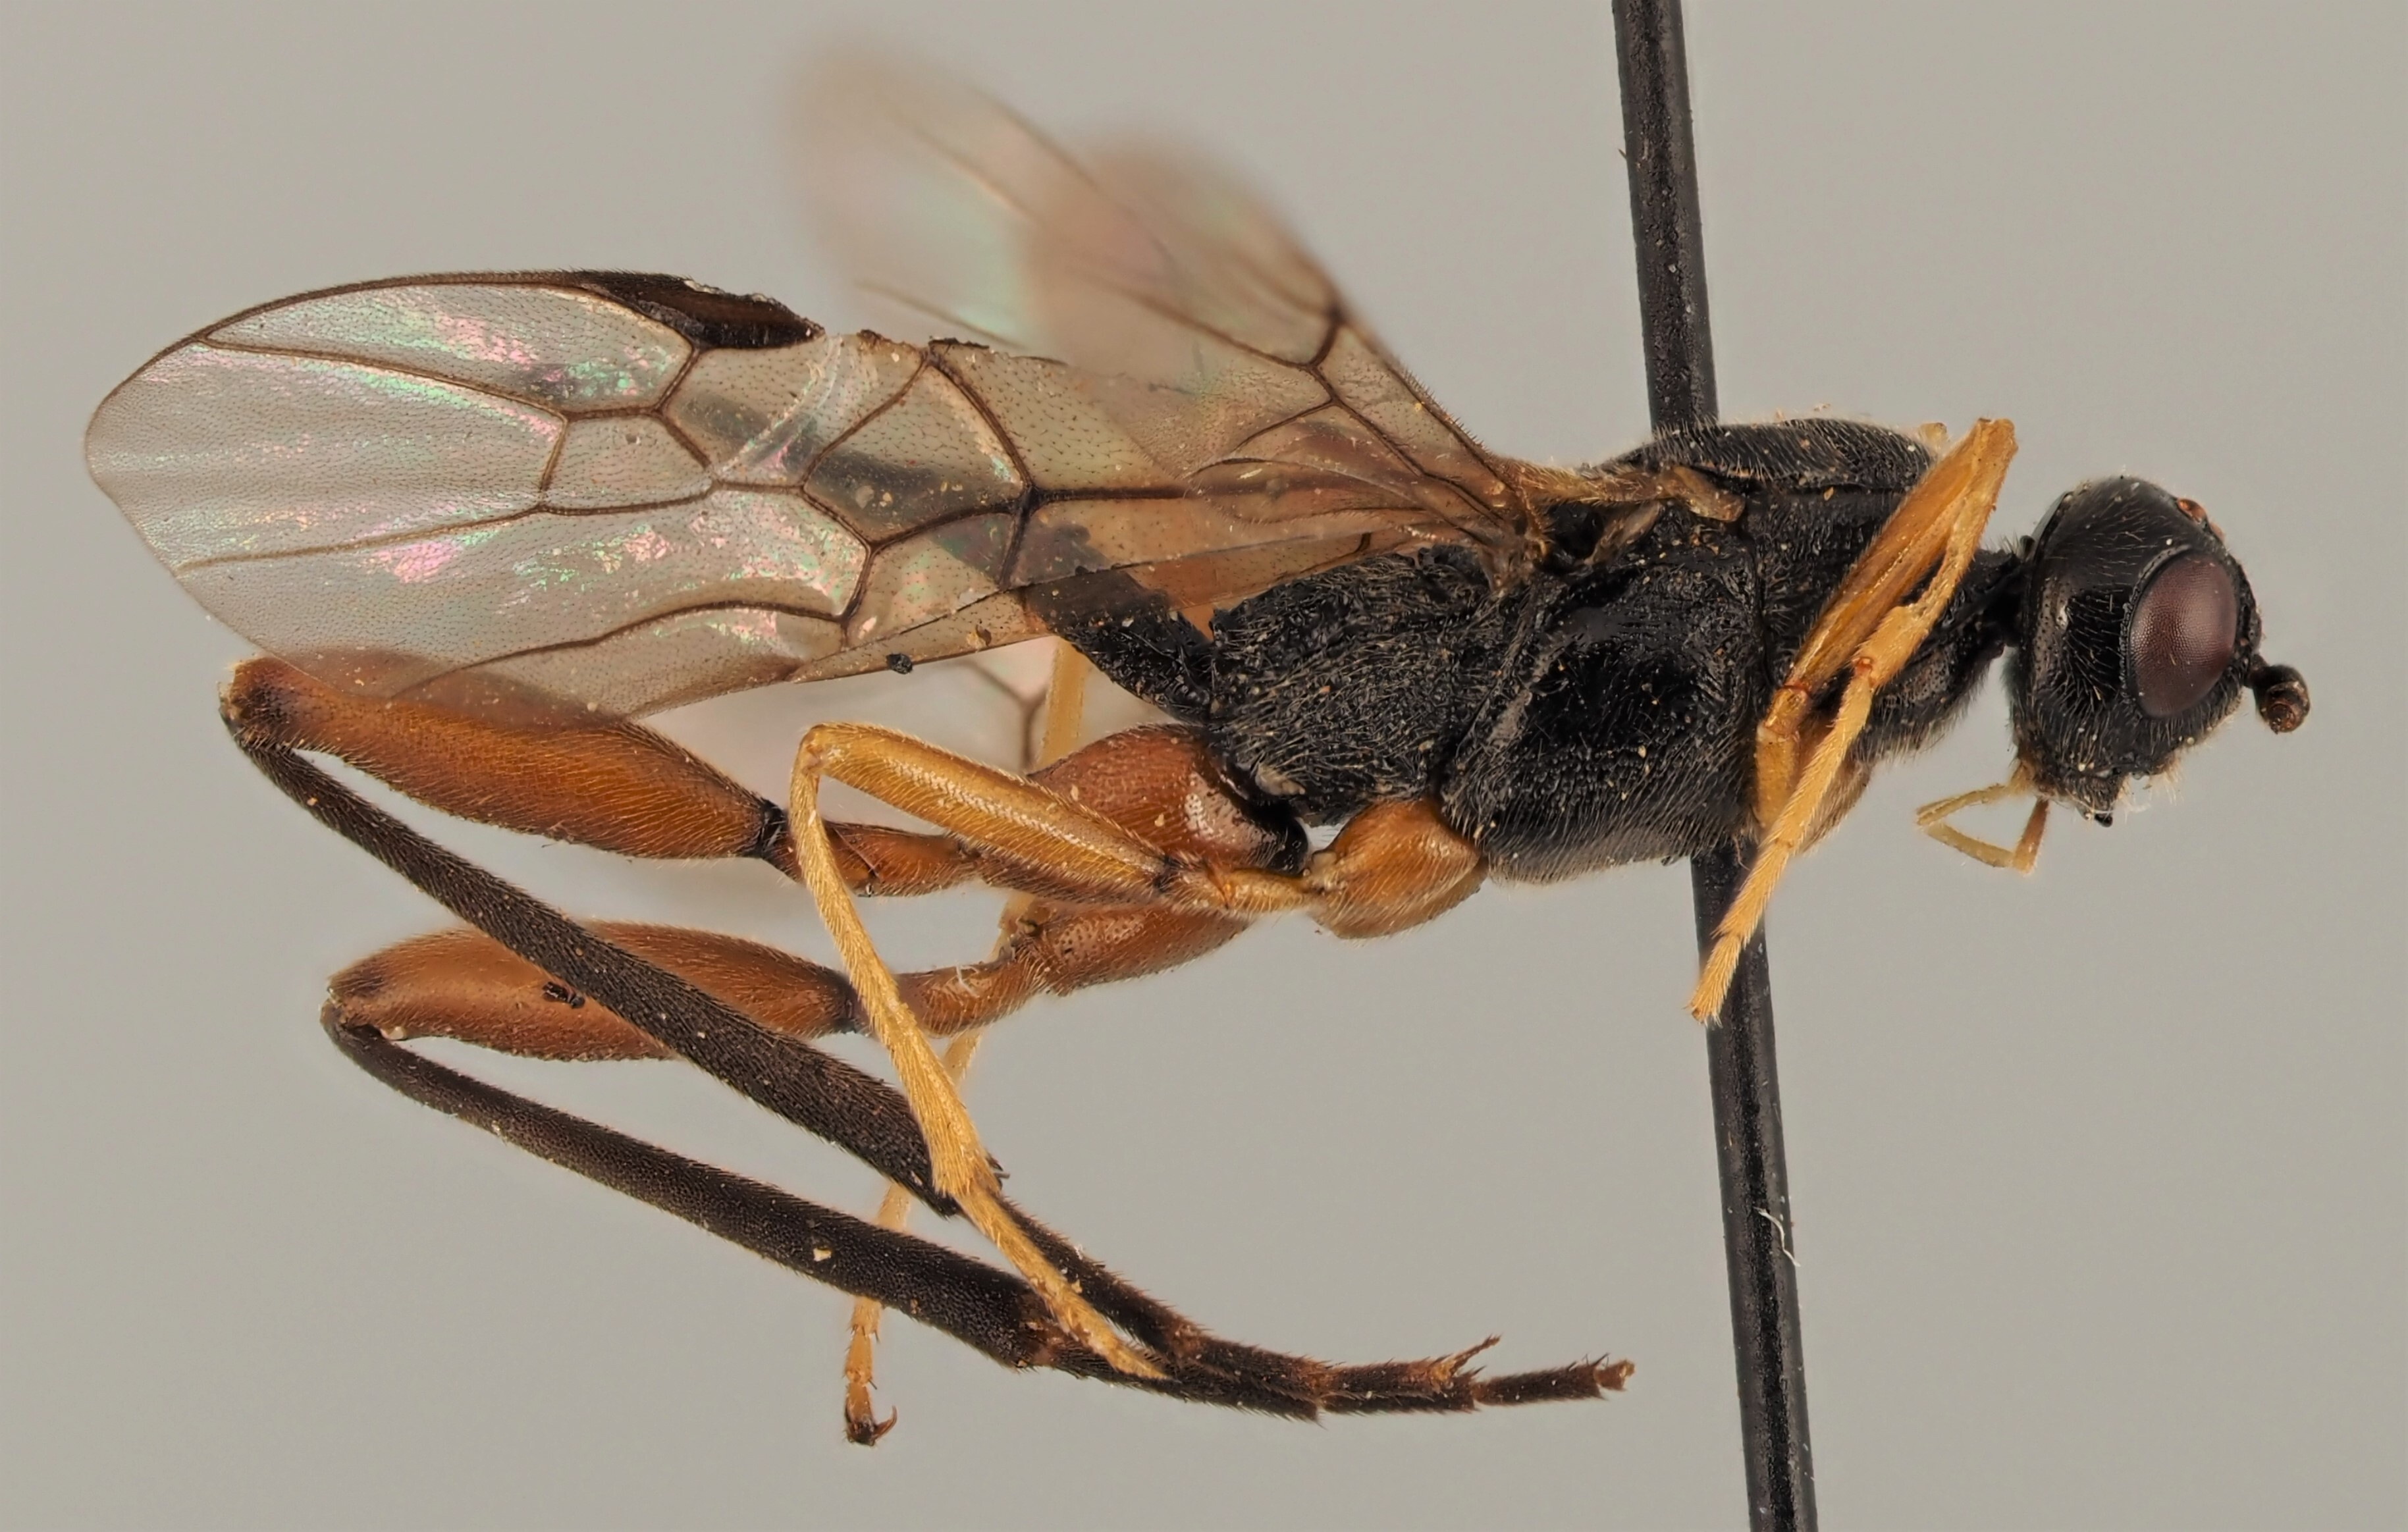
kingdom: Animalia
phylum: Arthropoda
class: Insecta
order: Hymenoptera
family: Braconidae
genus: Helcon
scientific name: Helcon nunciator
